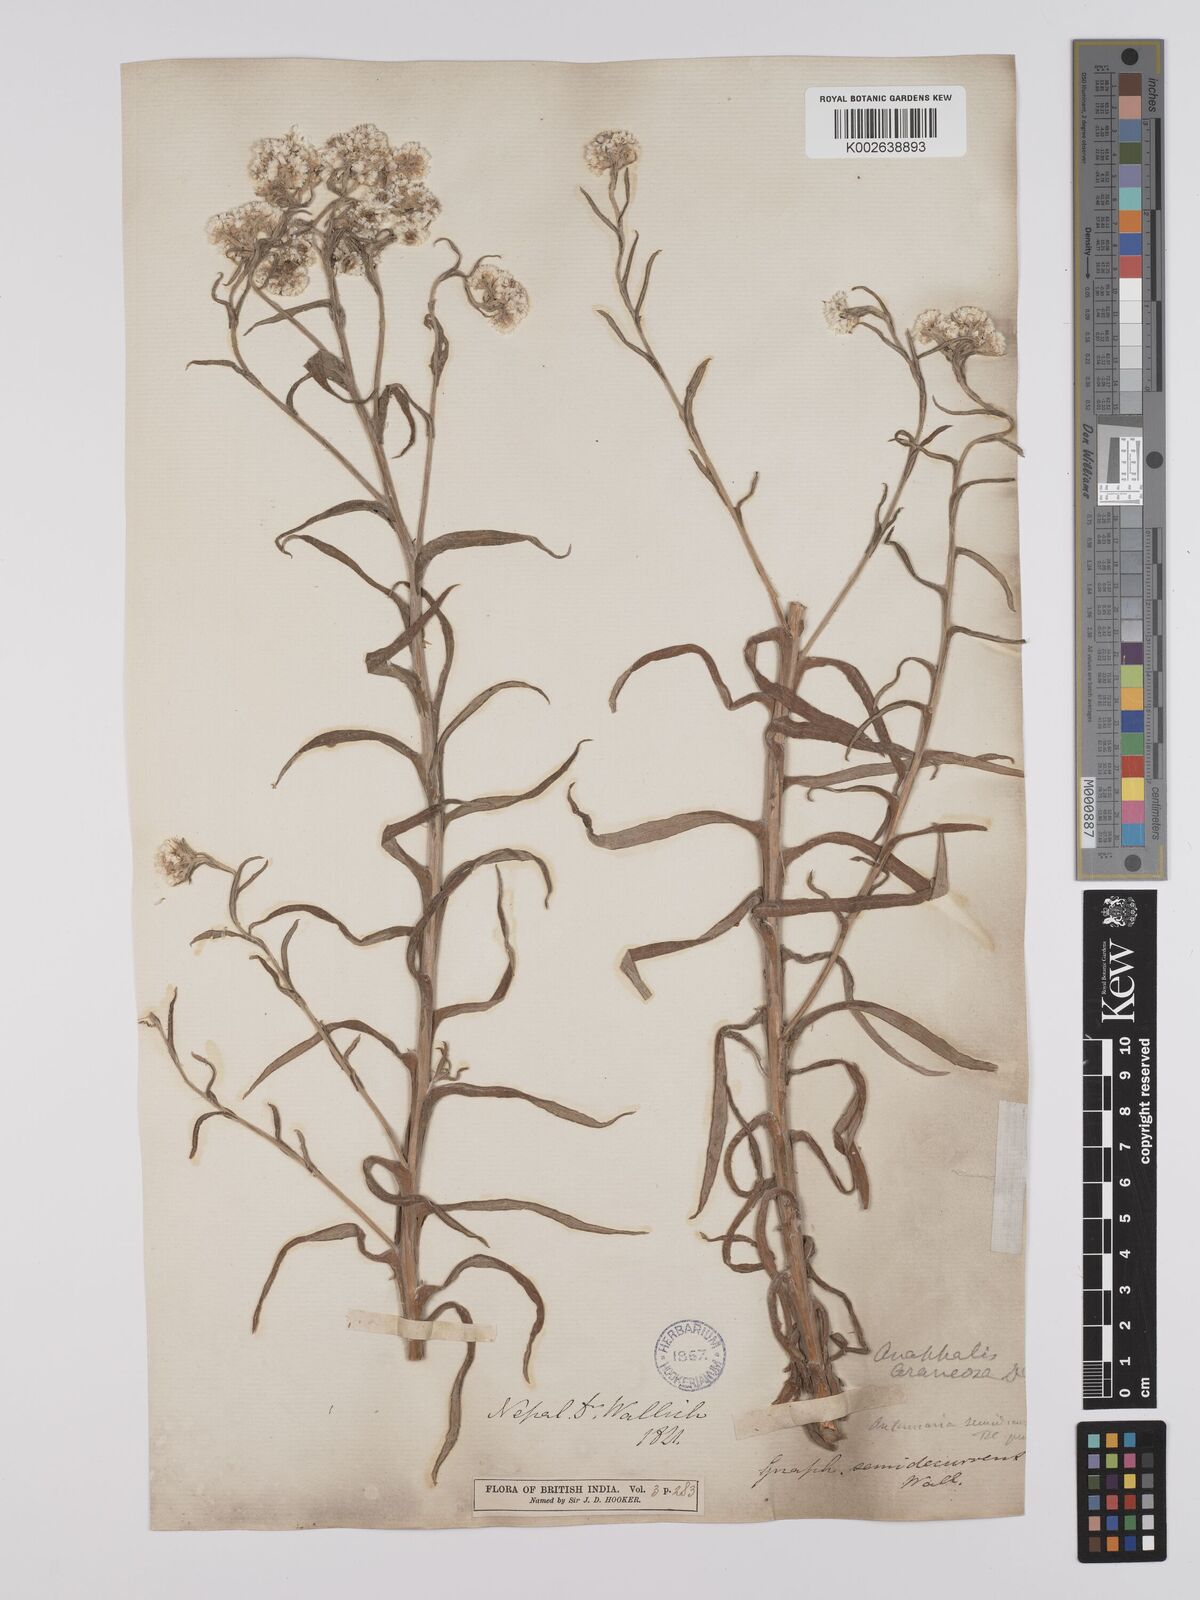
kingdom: Plantae
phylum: Tracheophyta
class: Magnoliopsida
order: Asterales
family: Asteraceae
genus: Anaphalis
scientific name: Anaphalis busua
